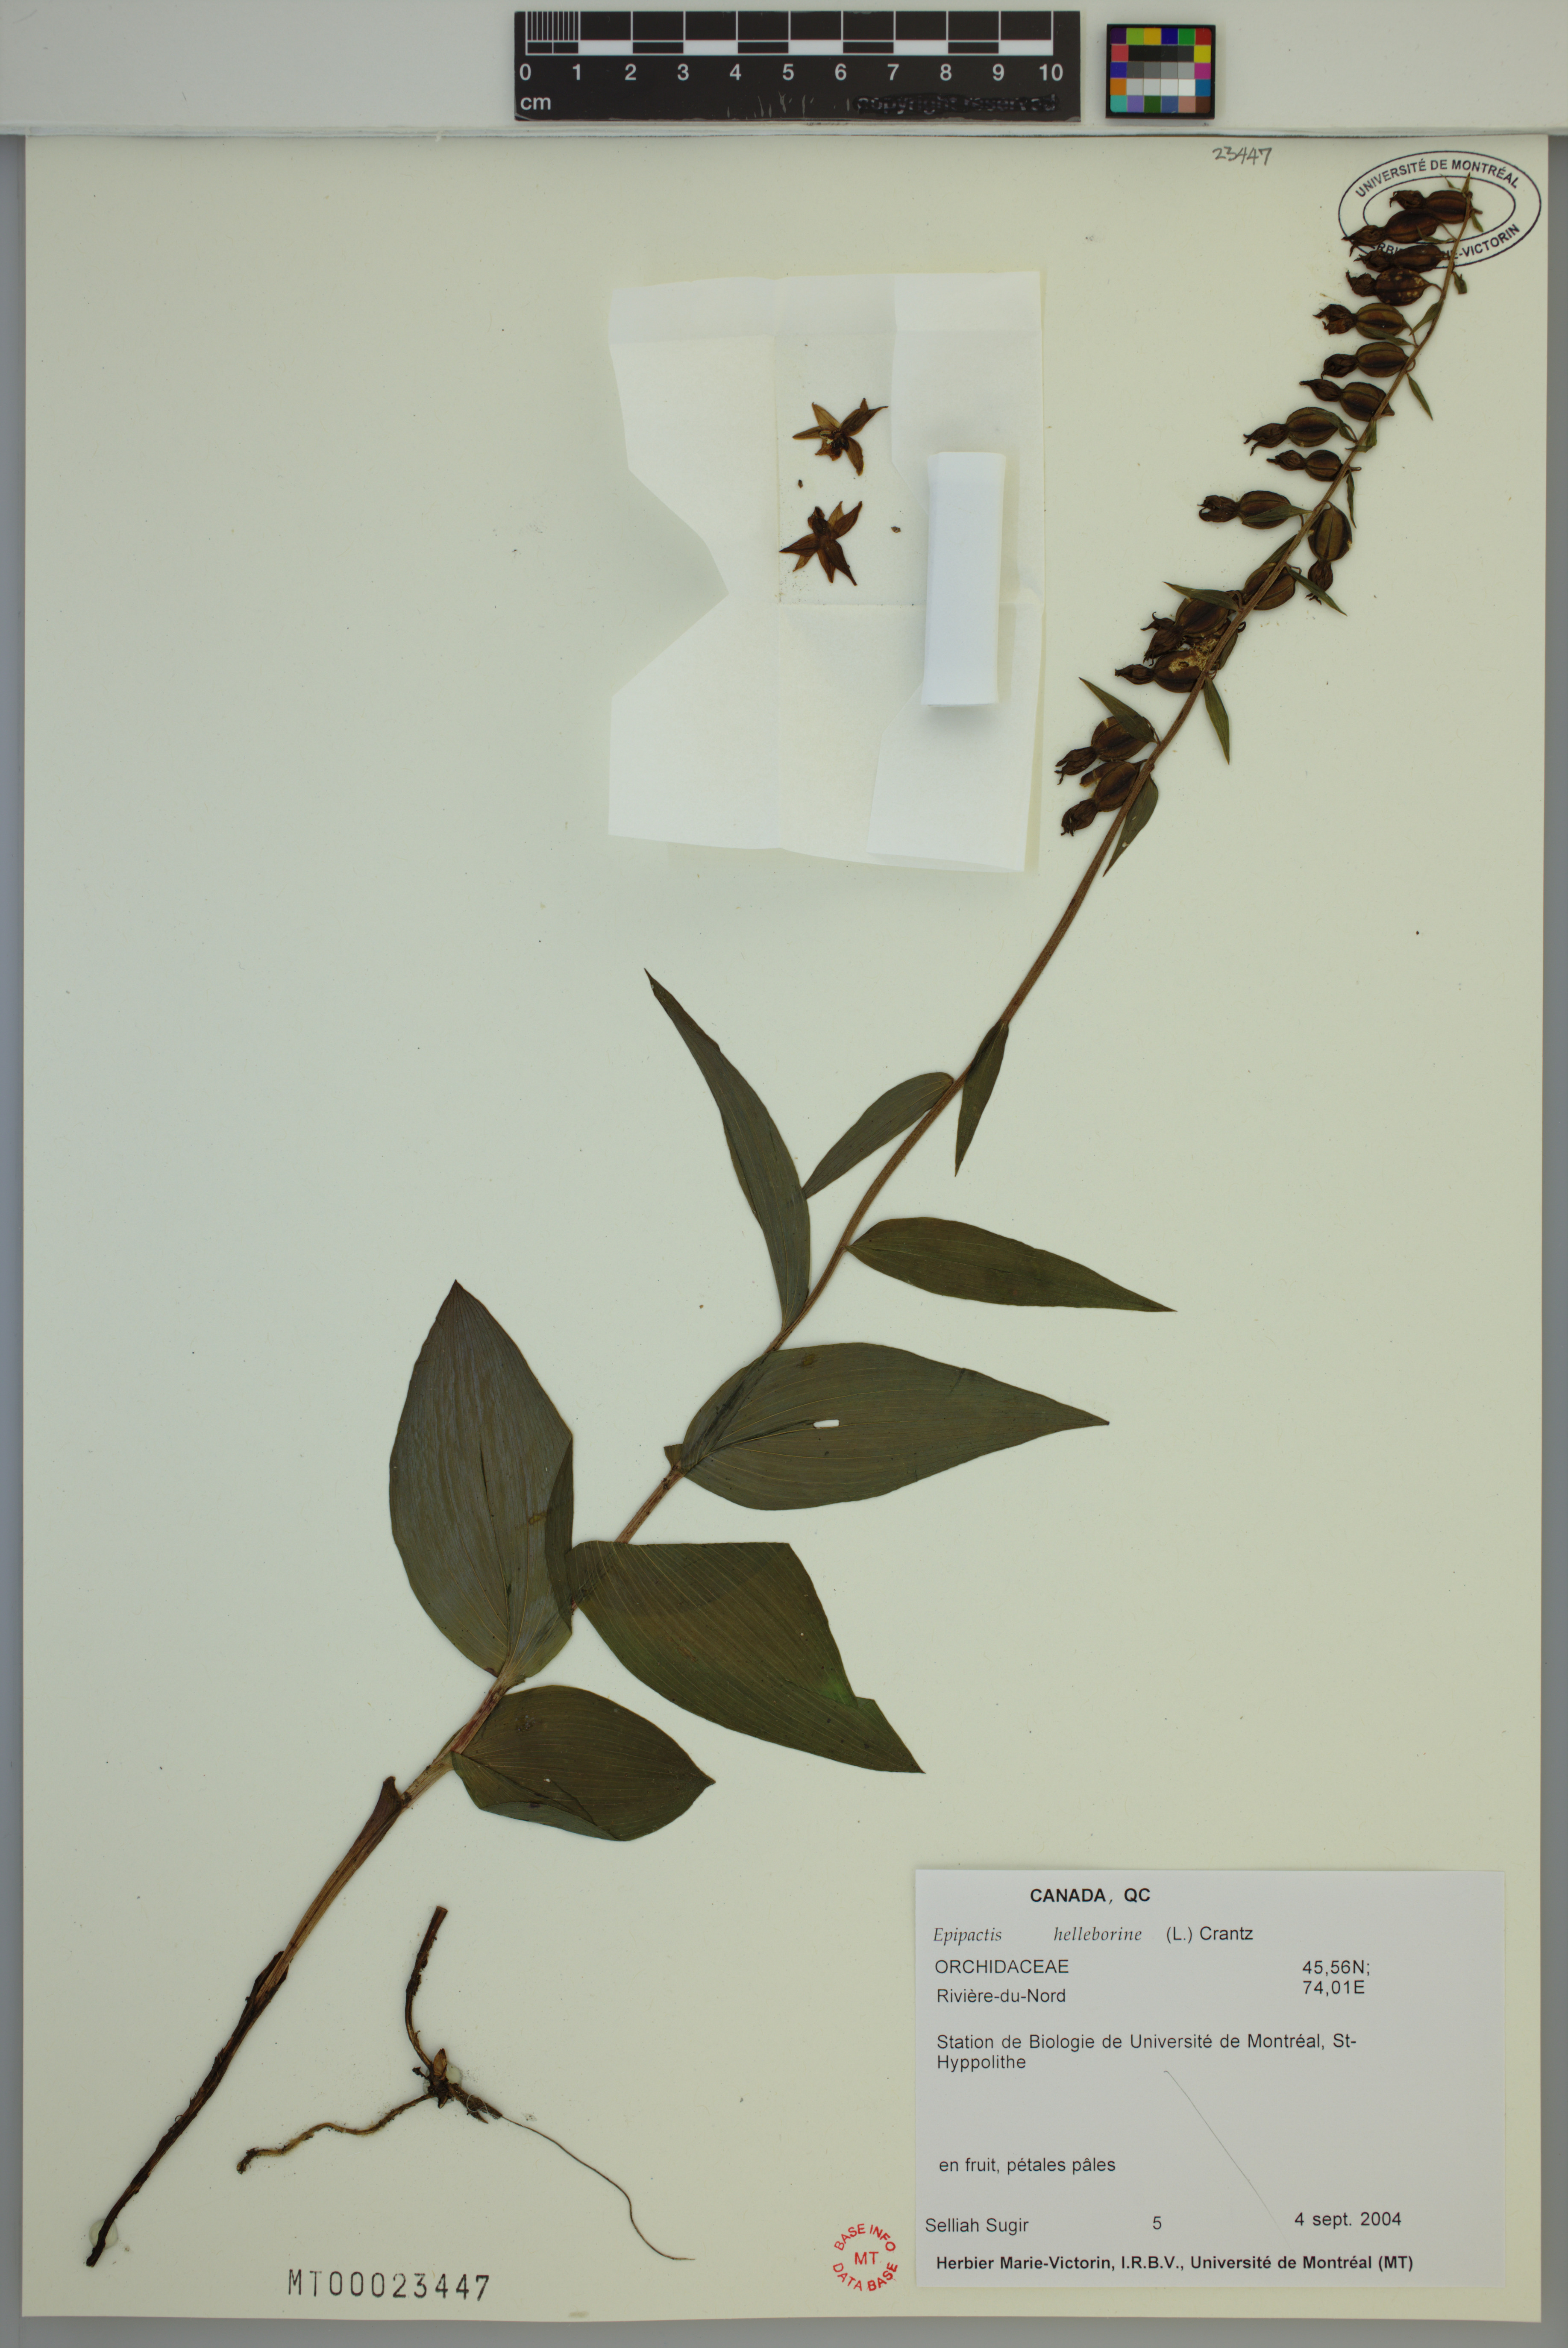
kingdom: Plantae
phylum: Tracheophyta
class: Liliopsida
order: Asparagales
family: Orchidaceae
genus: Epipactis
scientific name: Epipactis helleborine
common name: Broad-leaved helleborine
